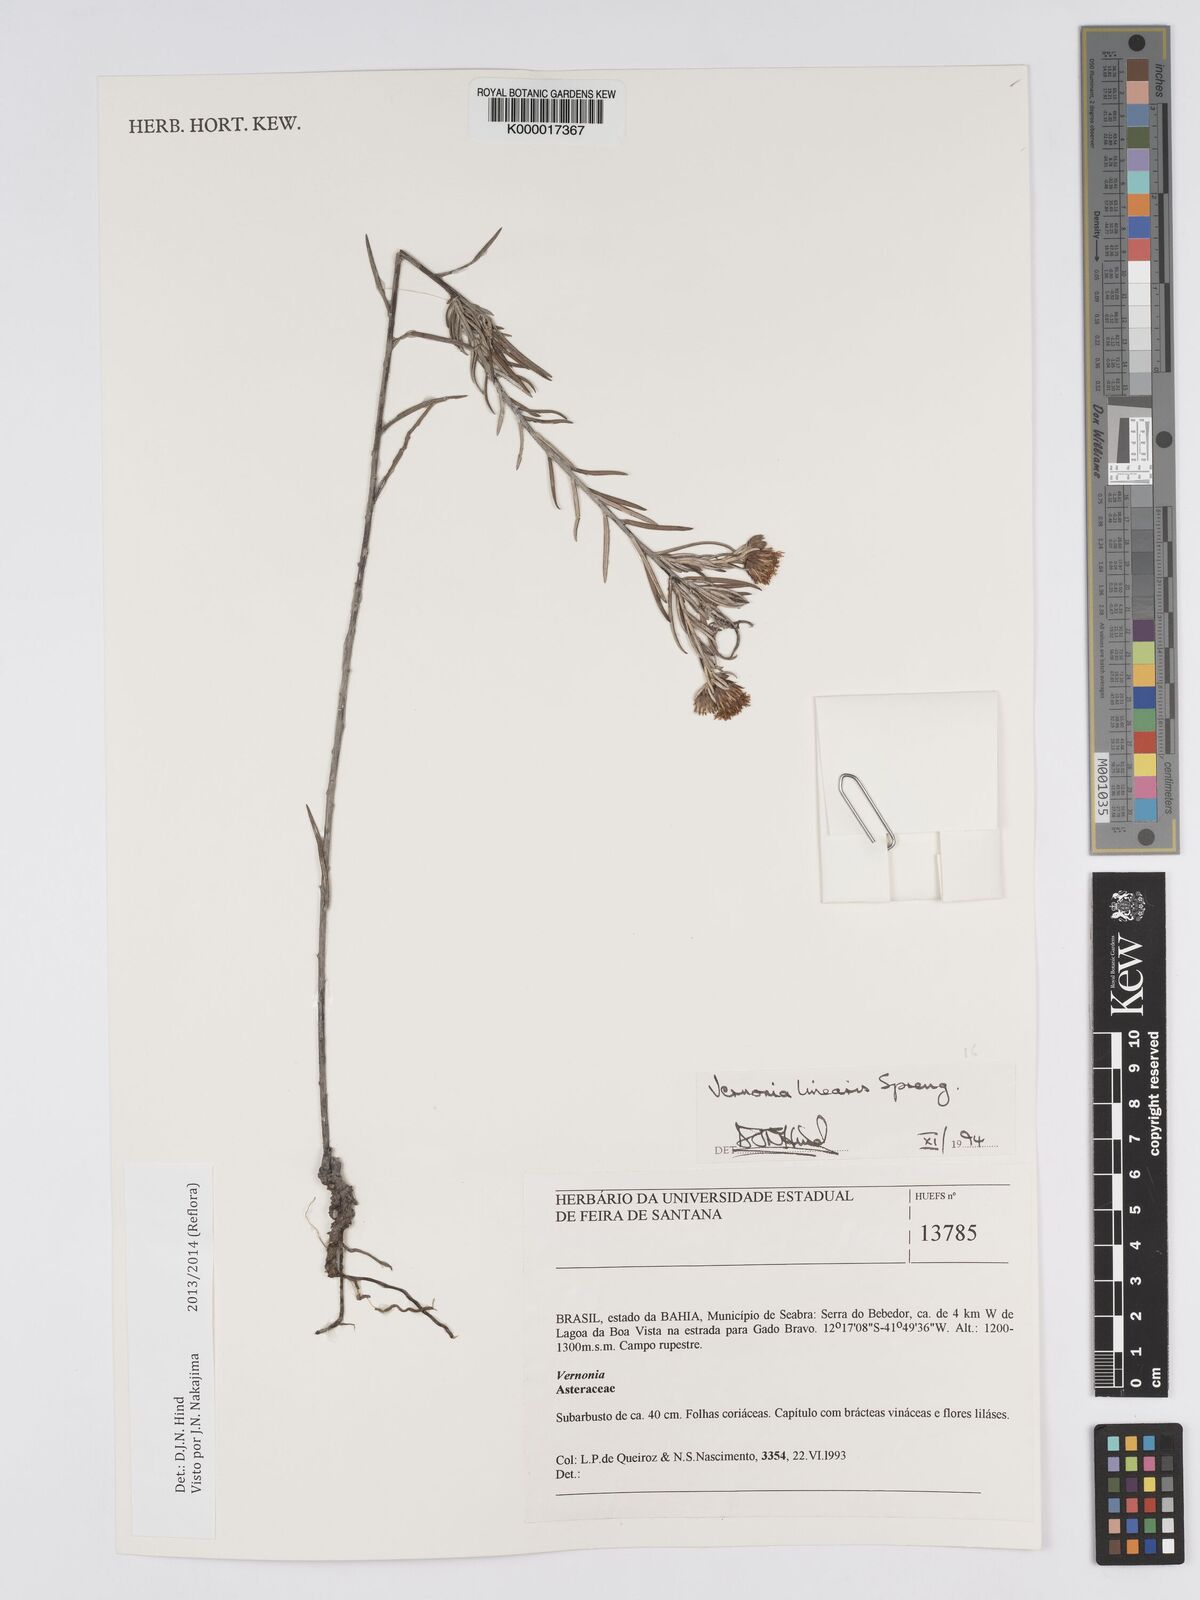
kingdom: Plantae
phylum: Tracheophyta
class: Magnoliopsida
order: Asterales
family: Asteraceae
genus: Lessingianthus
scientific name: Lessingianthus linearis
